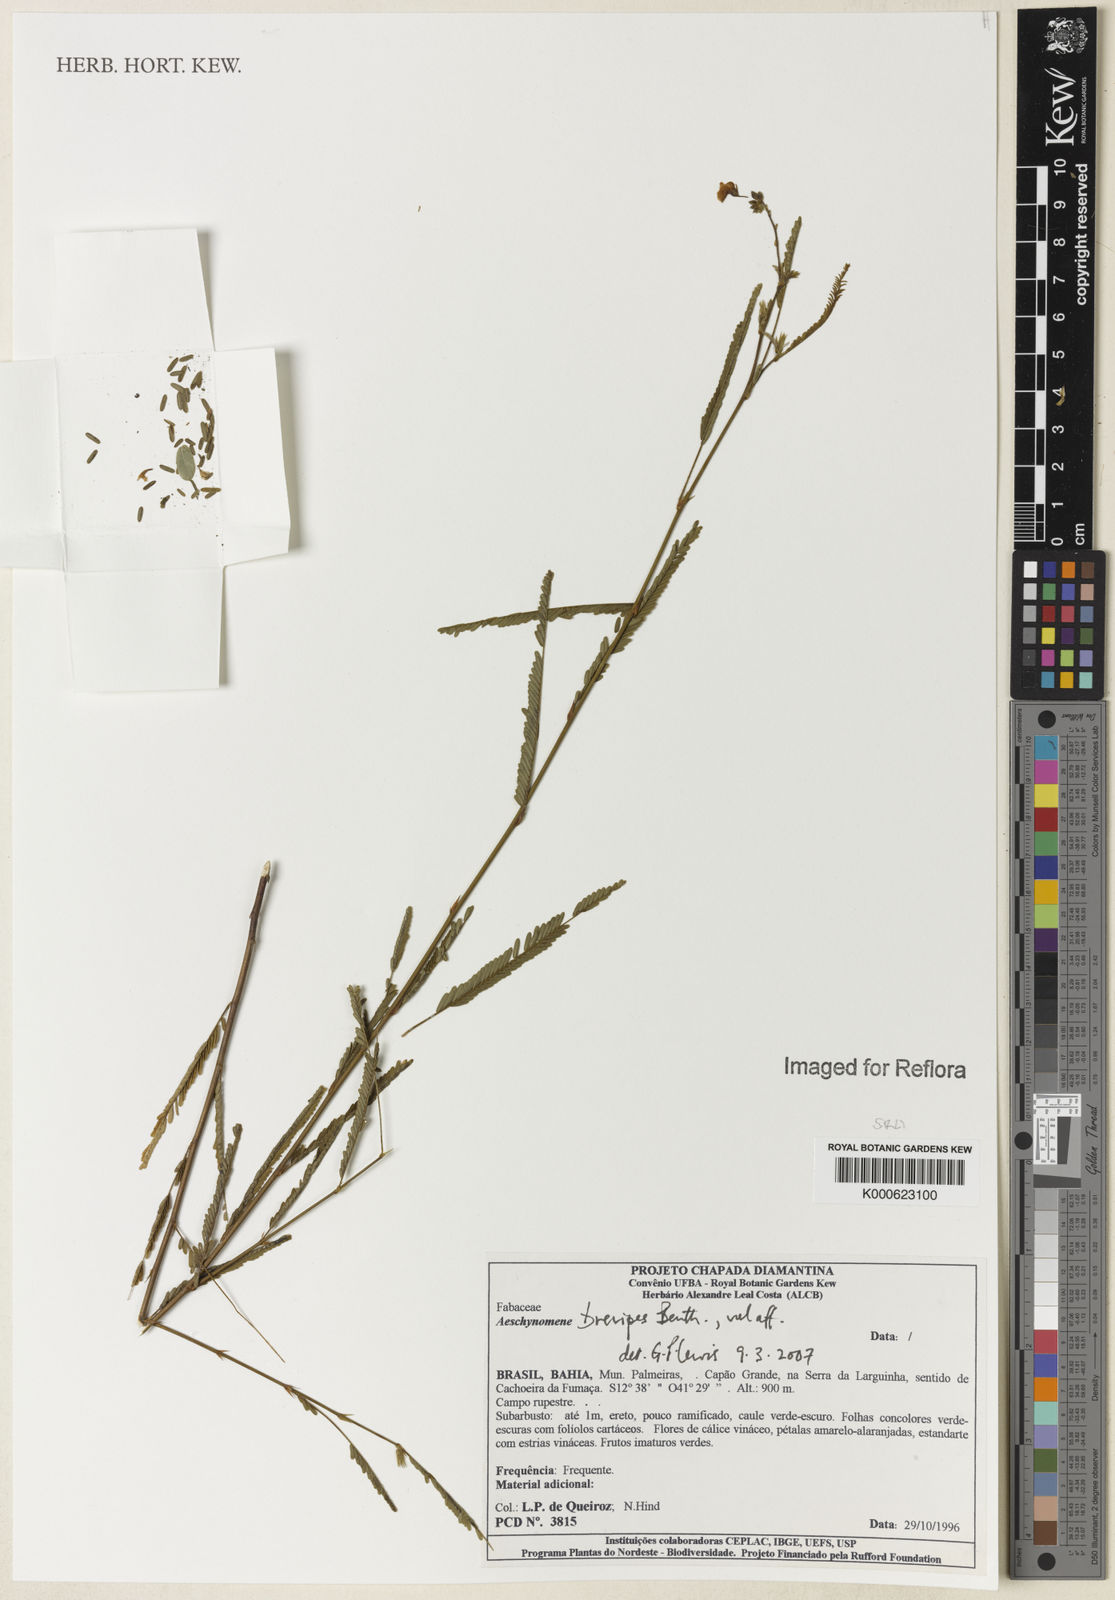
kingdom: Plantae
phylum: Tracheophyta
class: Magnoliopsida
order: Fabales
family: Fabaceae
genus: Ctenodon
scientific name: Ctenodon brevipes
